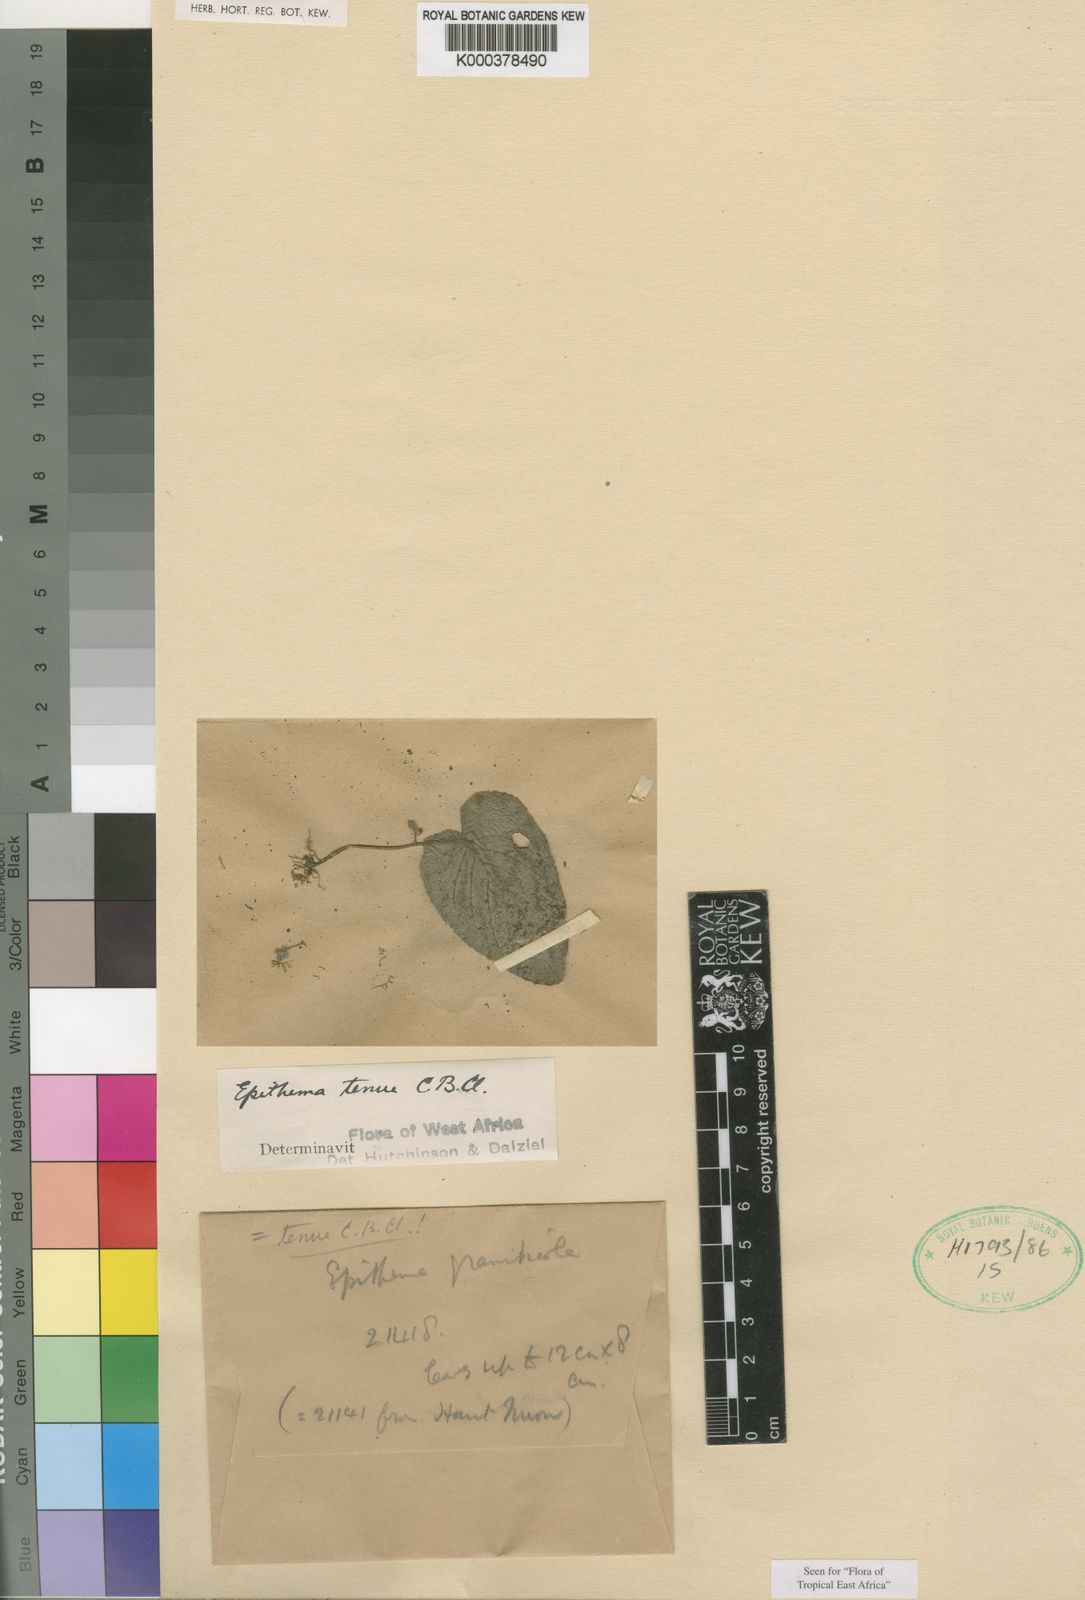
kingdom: Plantae
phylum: Tracheophyta
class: Magnoliopsida
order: Lamiales
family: Gesneriaceae
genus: Epithema
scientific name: Epithema tenue
